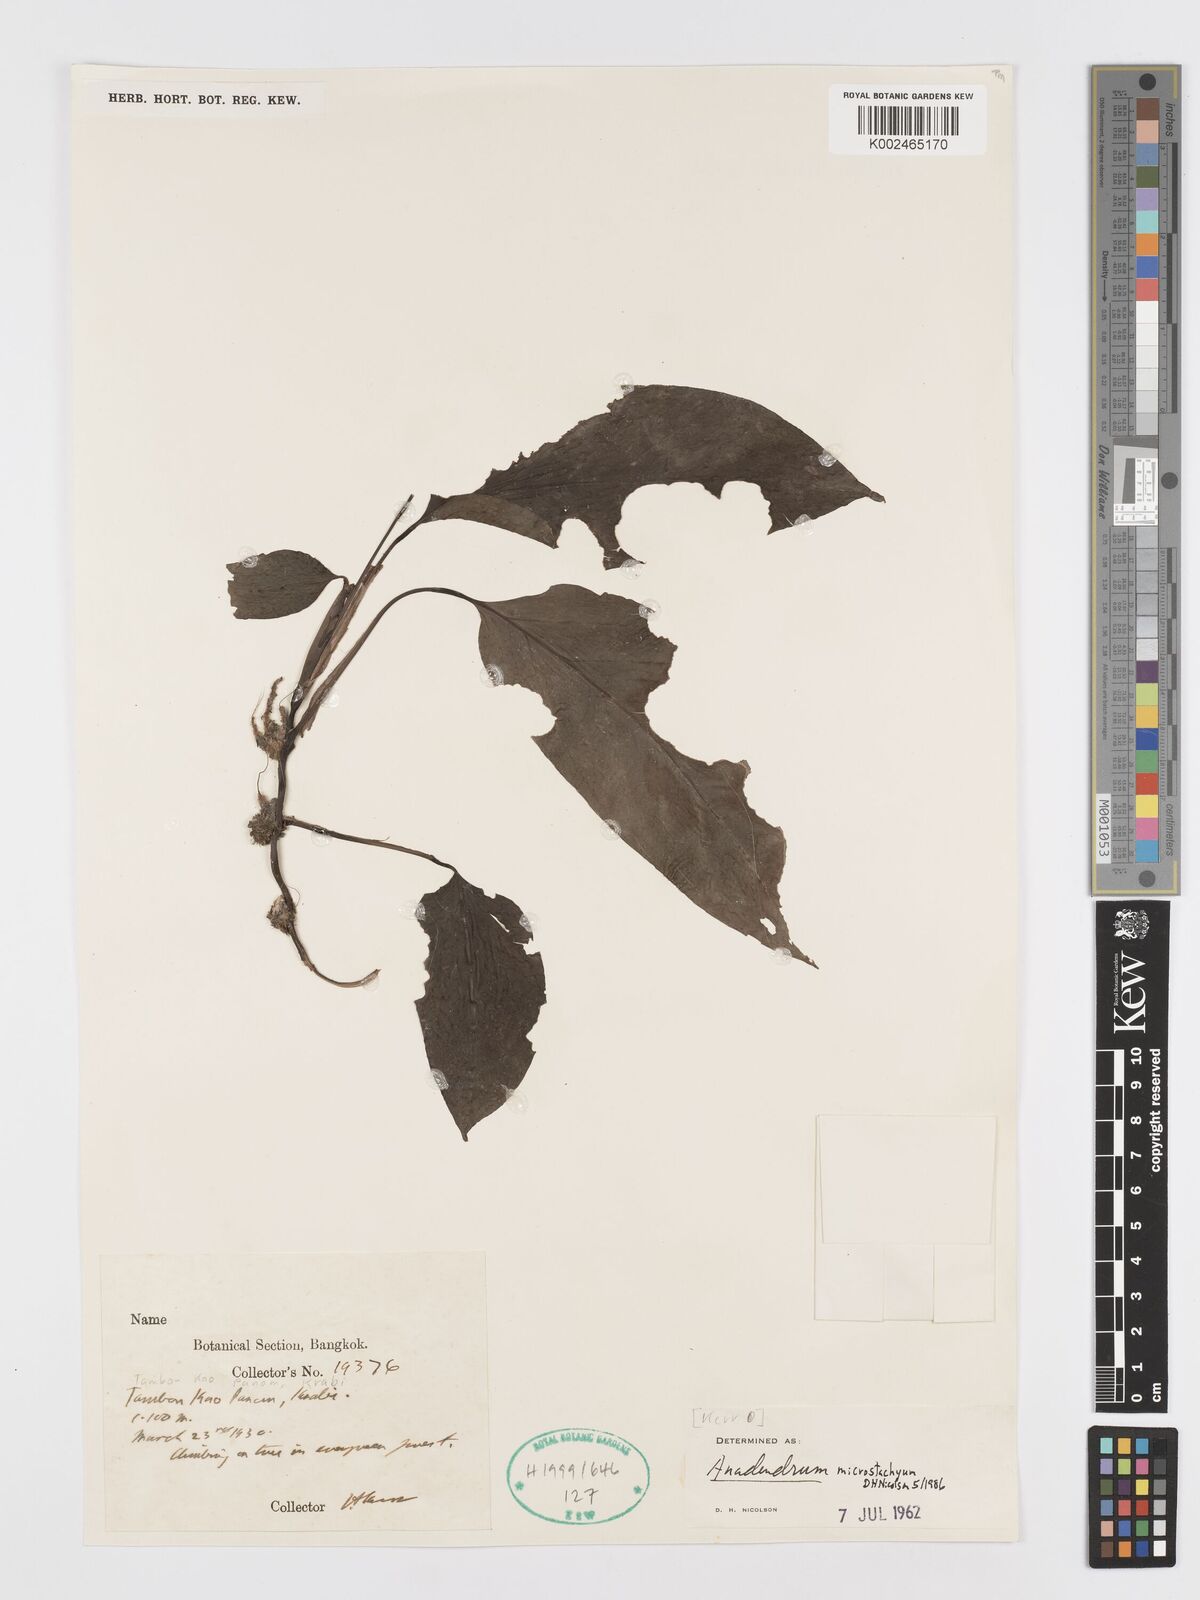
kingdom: Plantae
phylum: Tracheophyta
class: Liliopsida
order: Alismatales
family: Araceae
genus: Anadendrum
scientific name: Anadendrum microstachyum
